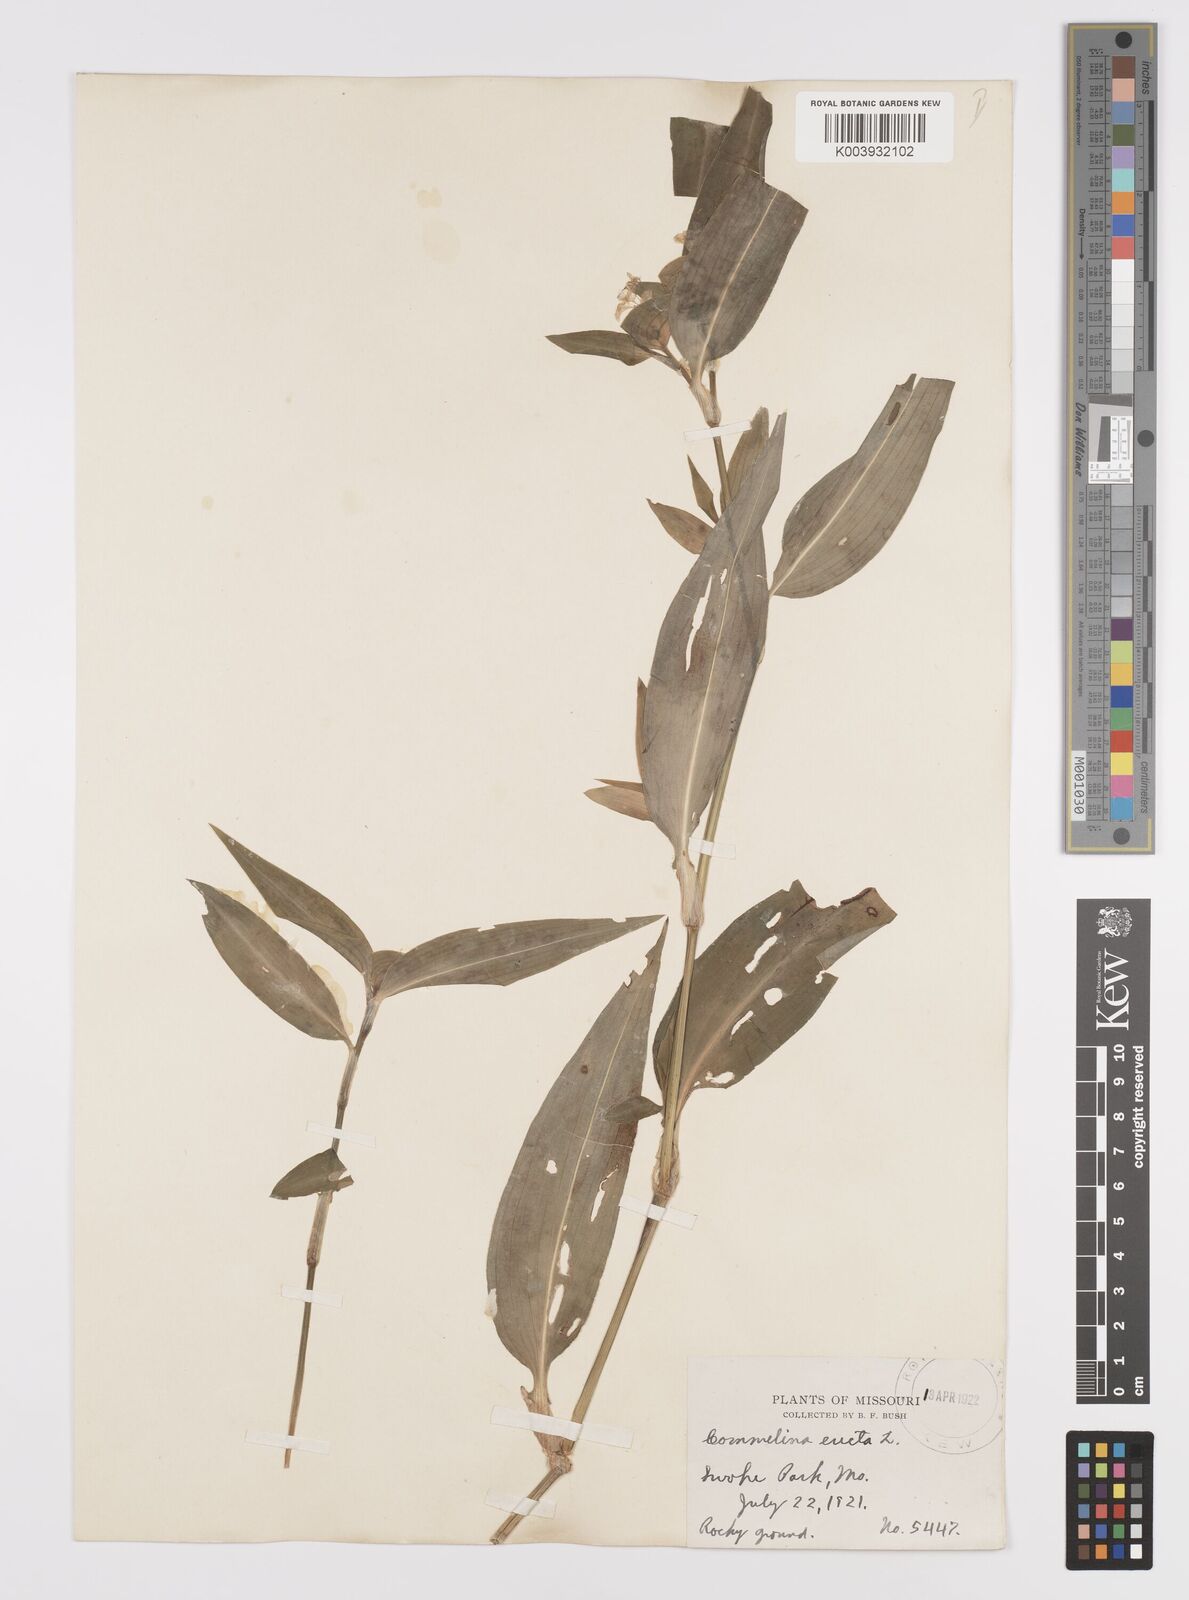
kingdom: Plantae
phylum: Tracheophyta
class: Liliopsida
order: Commelinales
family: Commelinaceae
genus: Commelina
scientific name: Commelina erecta
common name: Blousel blommetjie
